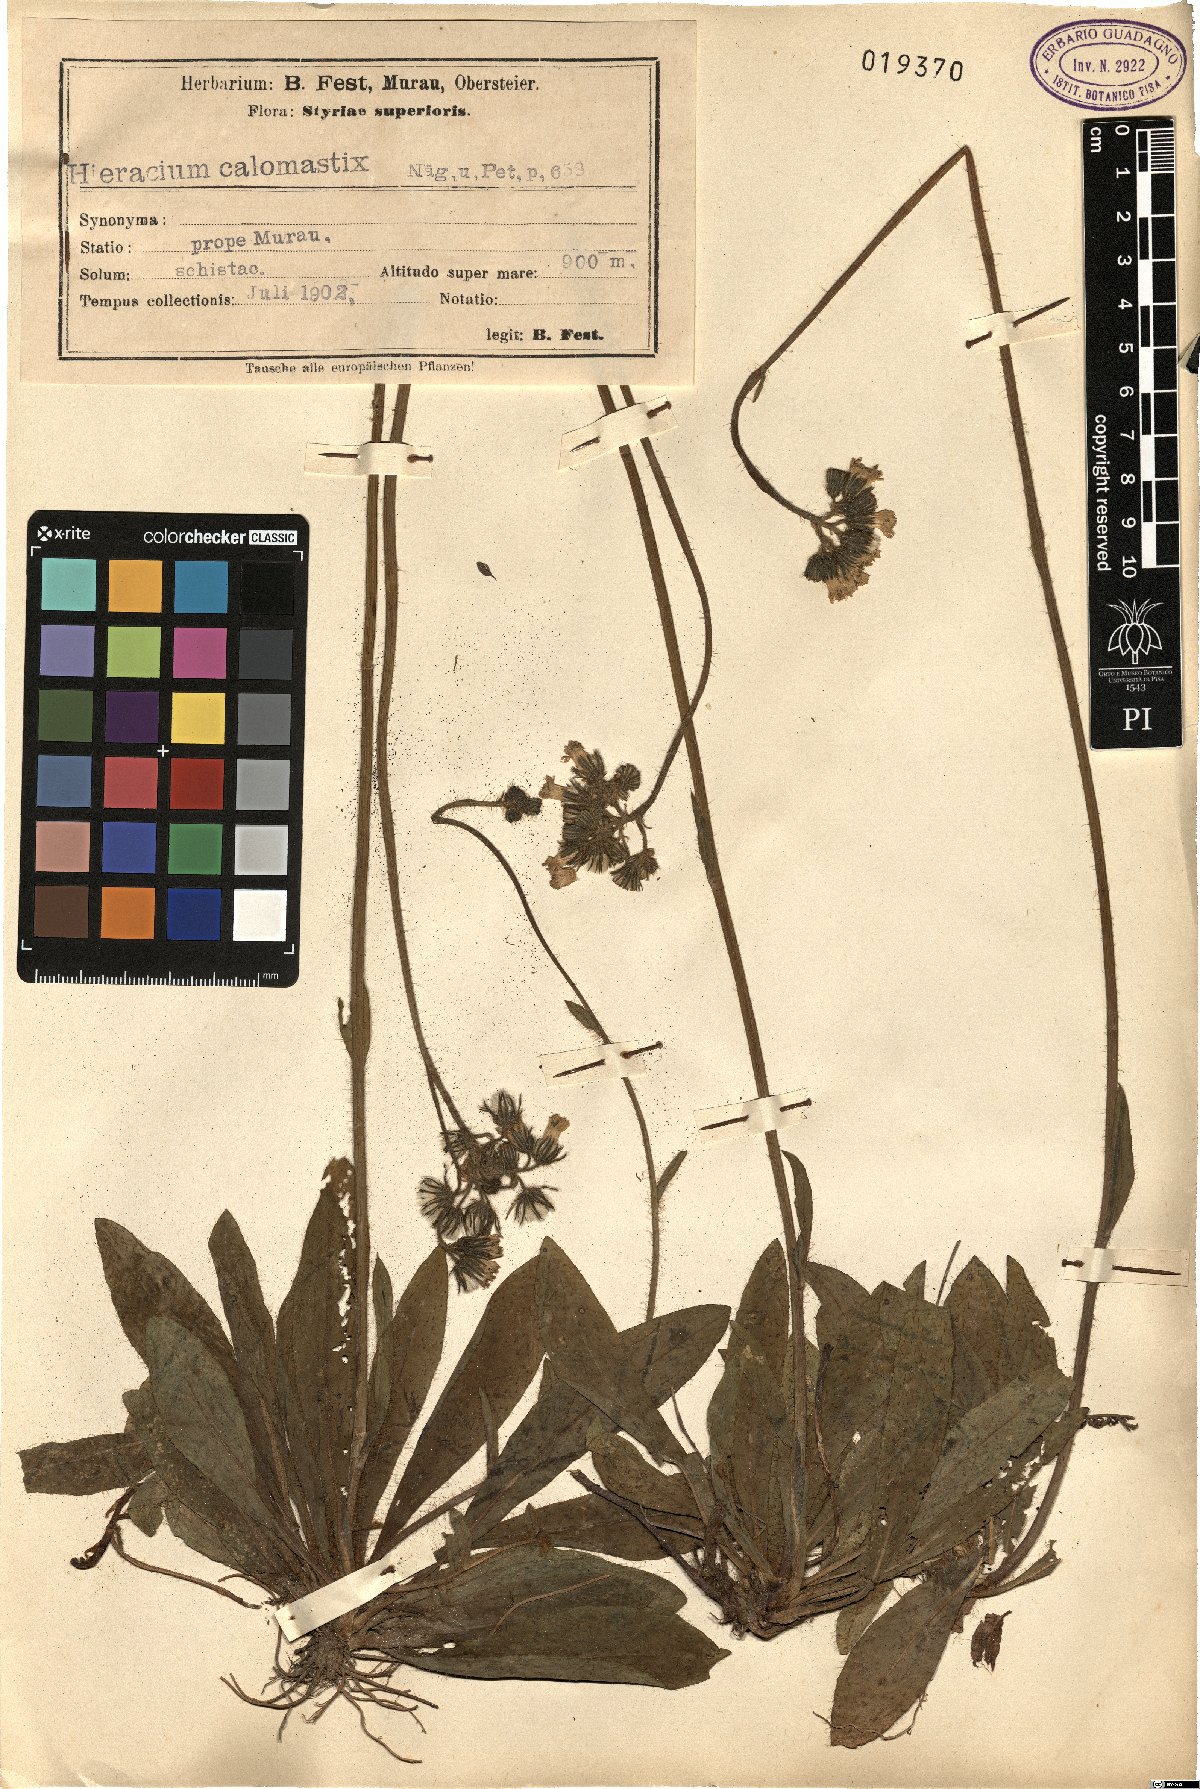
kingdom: Plantae
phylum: Tracheophyta
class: Magnoliopsida
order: Asterales
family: Asteraceae
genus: Pilosella
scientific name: Pilosella calomastix
